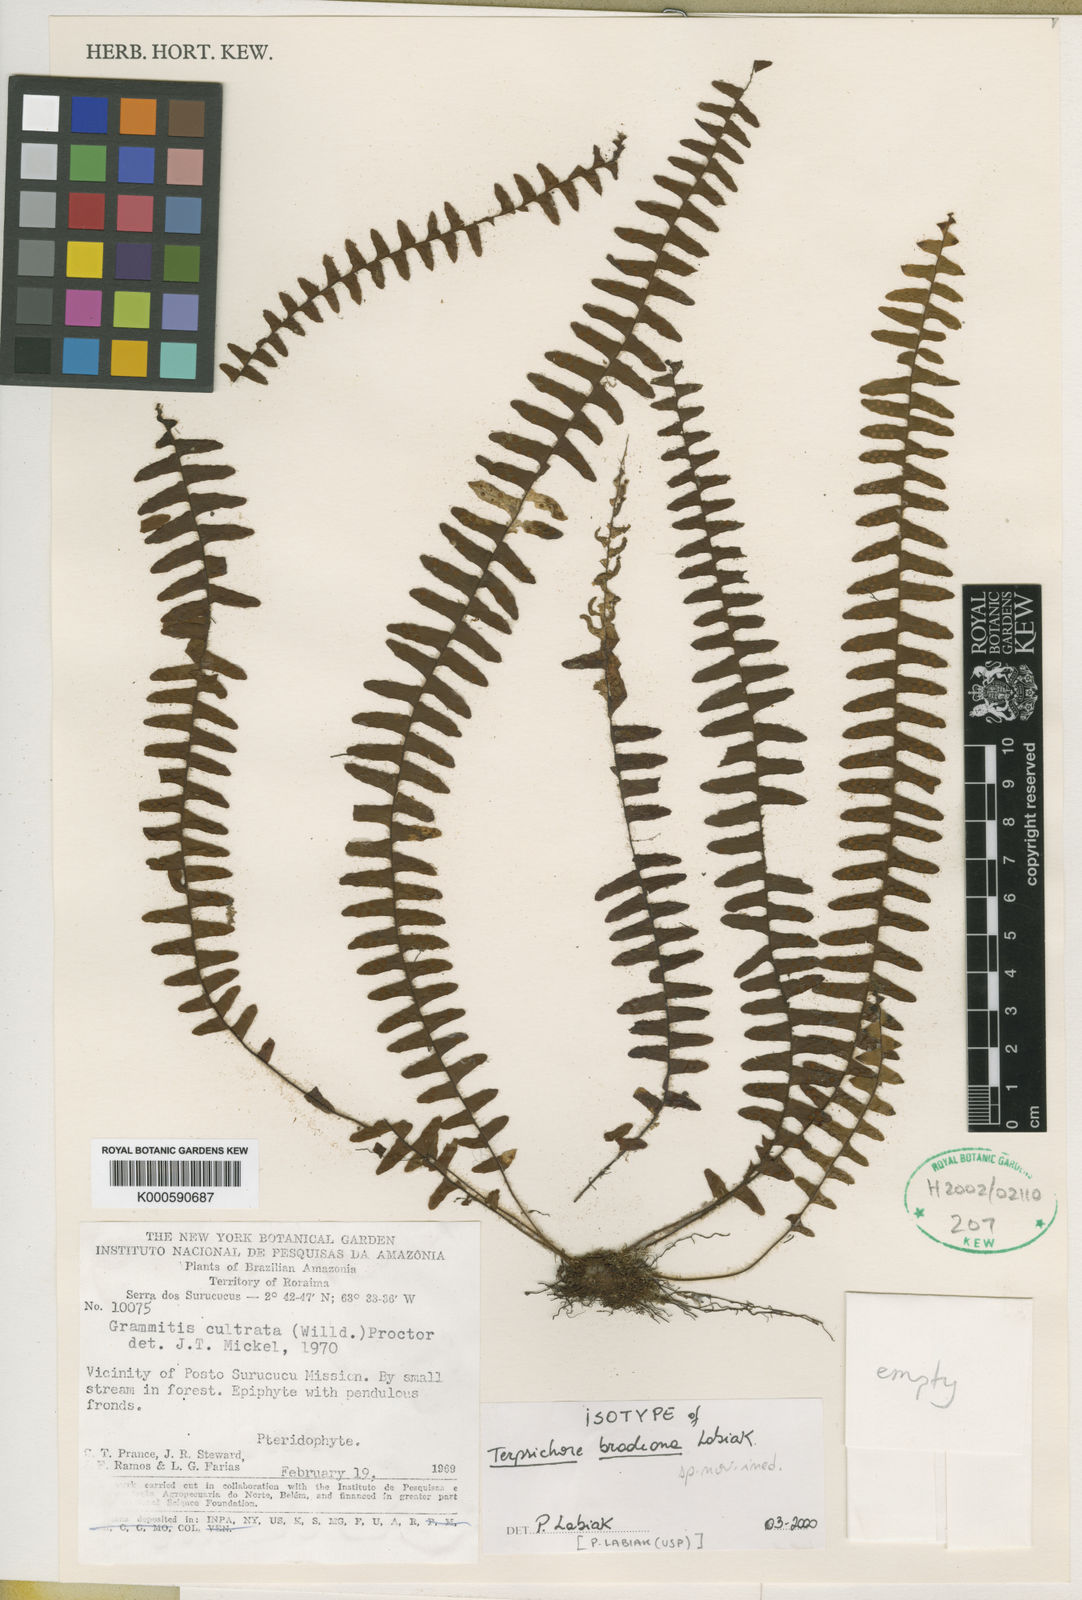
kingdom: Plantae
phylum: Tracheophyta
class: Polypodiopsida
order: Polypodiales
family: Polypodiaceae
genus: Terpsichore
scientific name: Terpsichore
